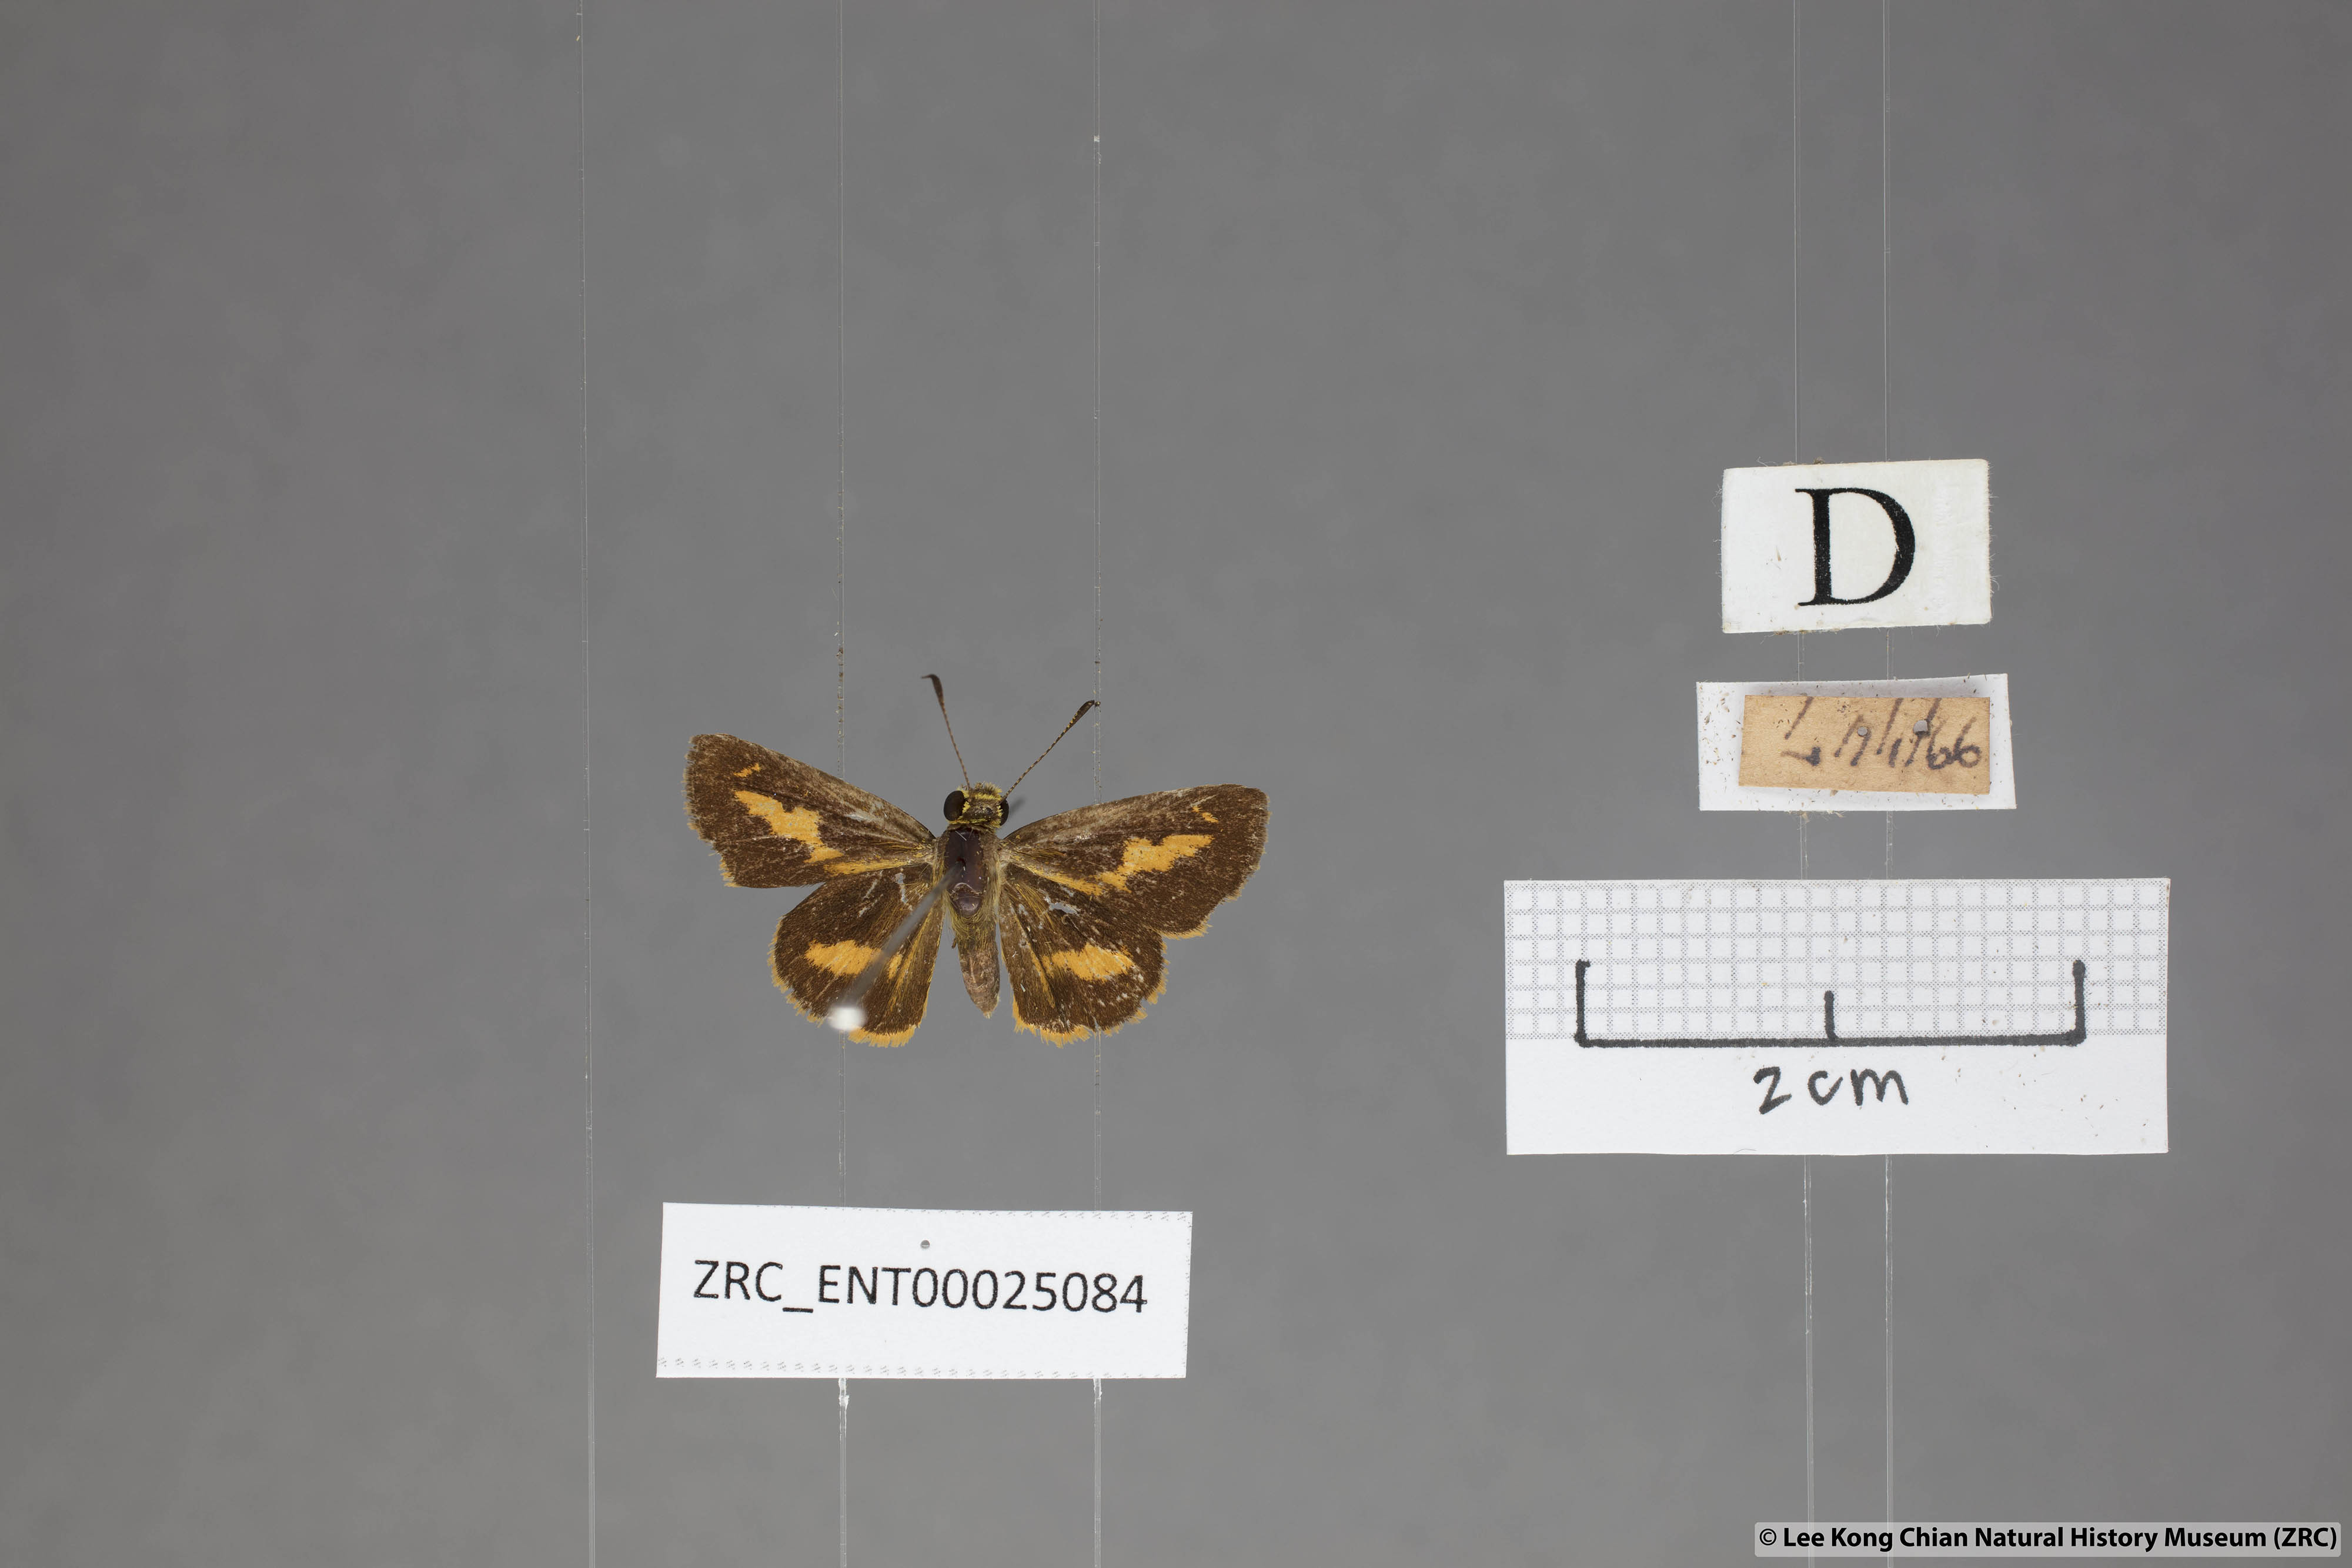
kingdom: Animalia
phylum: Arthropoda
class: Insecta
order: Lepidoptera
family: Hesperiidae
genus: Oriens
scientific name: Oriens gola
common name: Common dartlet
